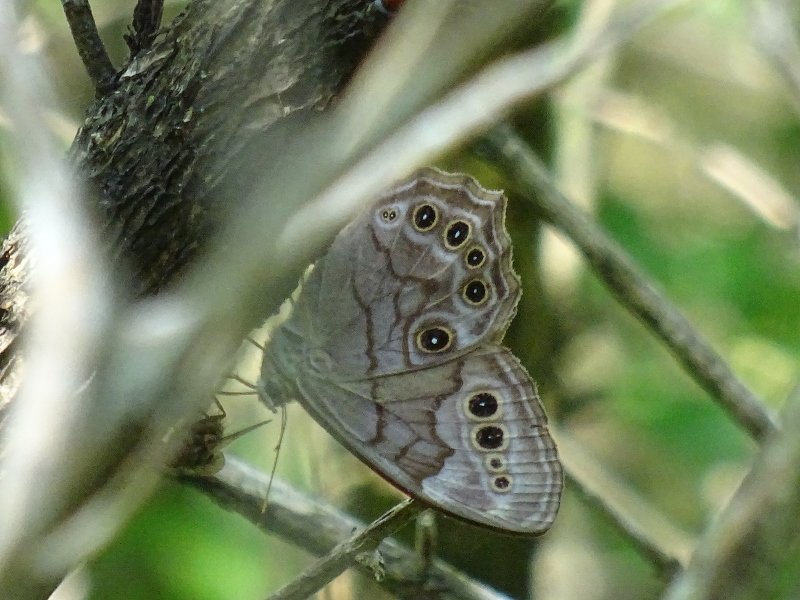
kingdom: Animalia
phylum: Arthropoda
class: Insecta
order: Lepidoptera
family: Nymphalidae
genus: Lethe
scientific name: Lethe anthedon
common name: Northern Pearly-Eye
